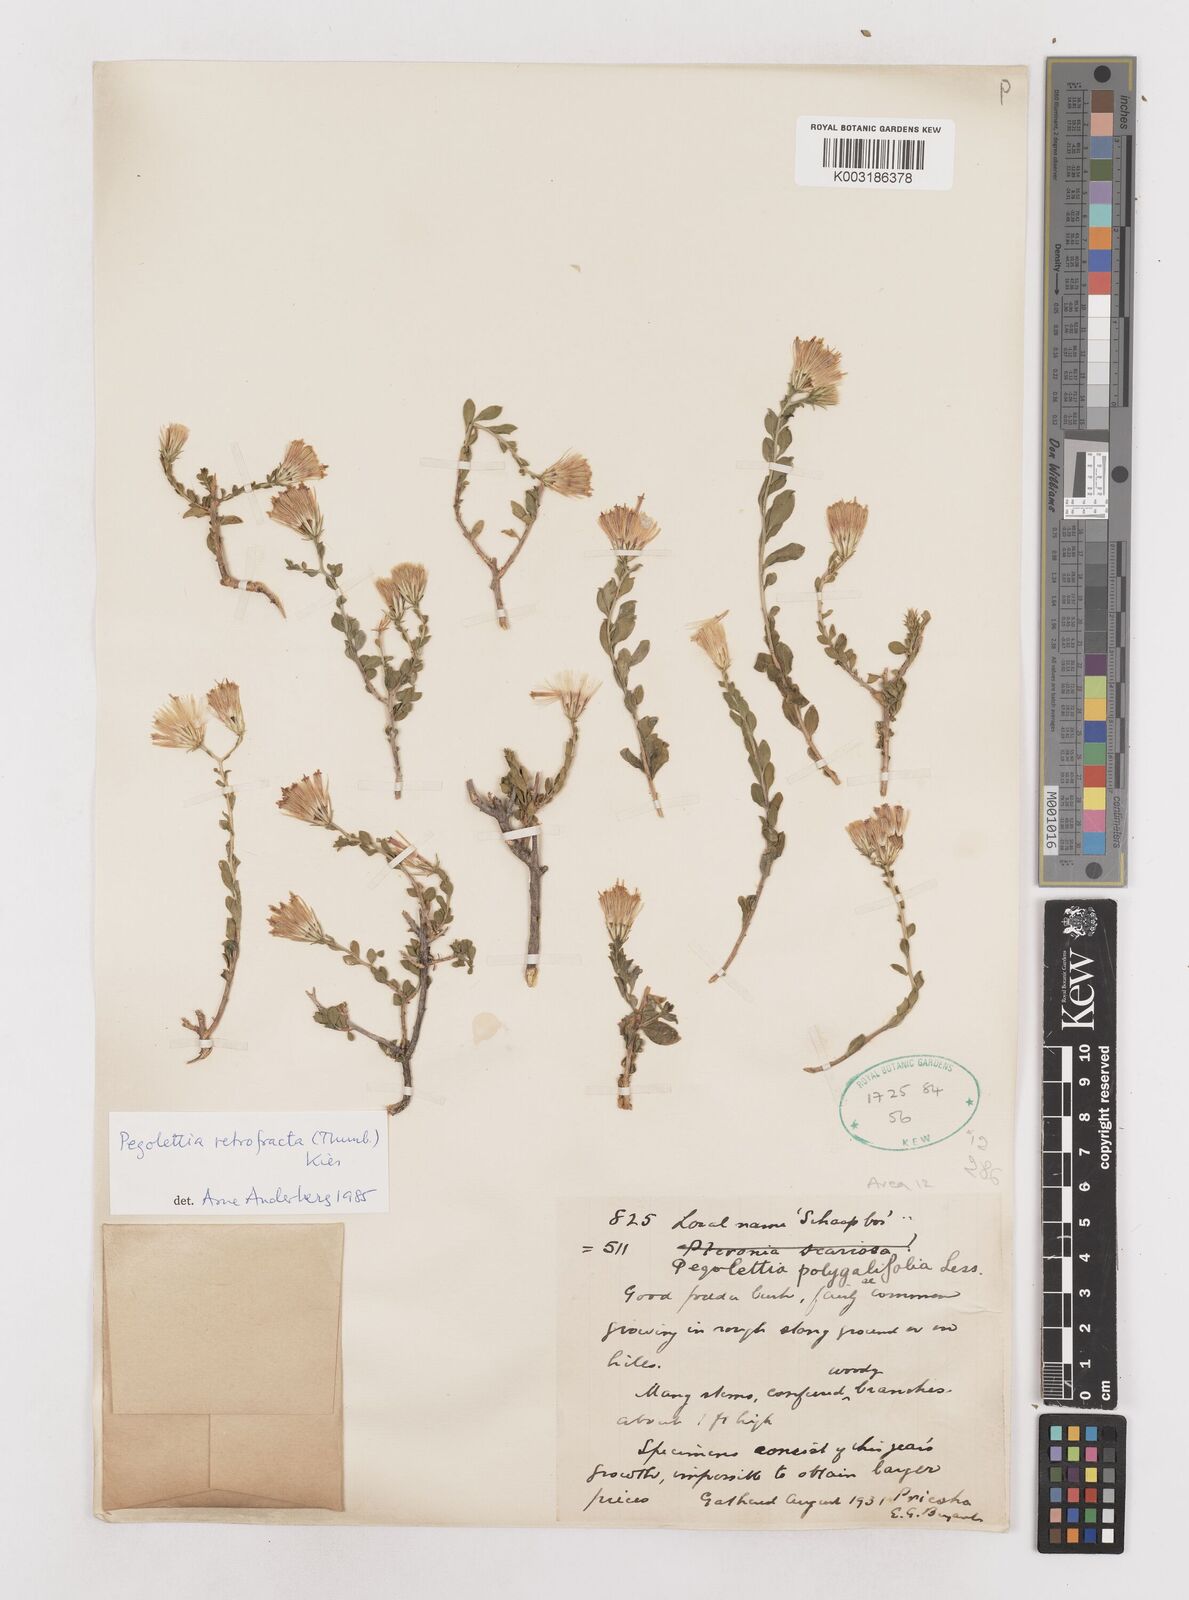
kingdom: Plantae
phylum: Tracheophyta
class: Magnoliopsida
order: Asterales
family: Asteraceae
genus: Pegolettia
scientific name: Pegolettia retrofracta
